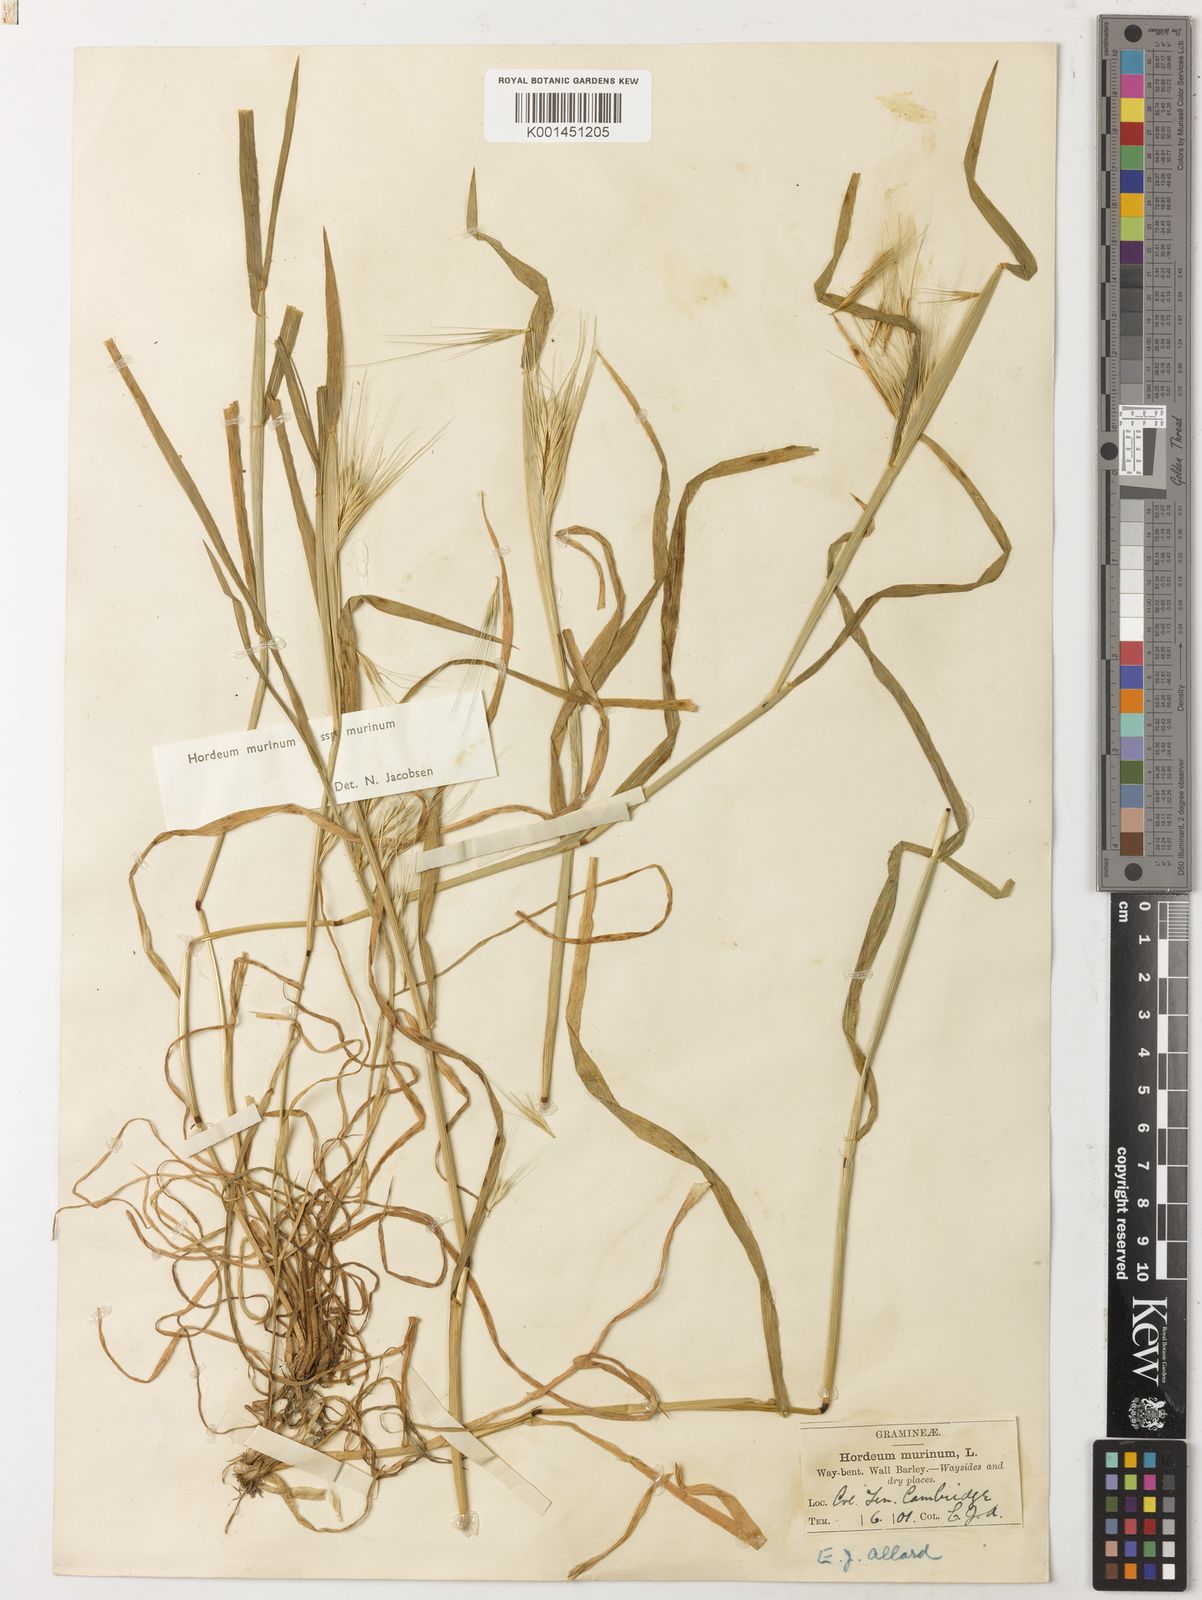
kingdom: Plantae
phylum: Tracheophyta
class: Liliopsida
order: Poales
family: Poaceae
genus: Hordeum
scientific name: Hordeum murinum
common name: Wall barley
